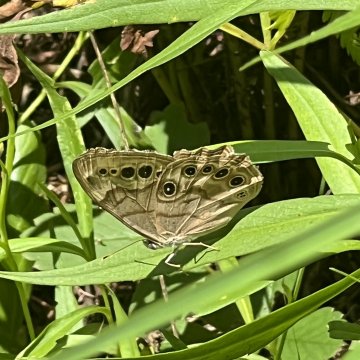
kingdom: Animalia
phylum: Arthropoda
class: Insecta
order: Lepidoptera
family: Nymphalidae
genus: Lethe
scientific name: Lethe anthedon
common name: Northern Pearly-Eye
